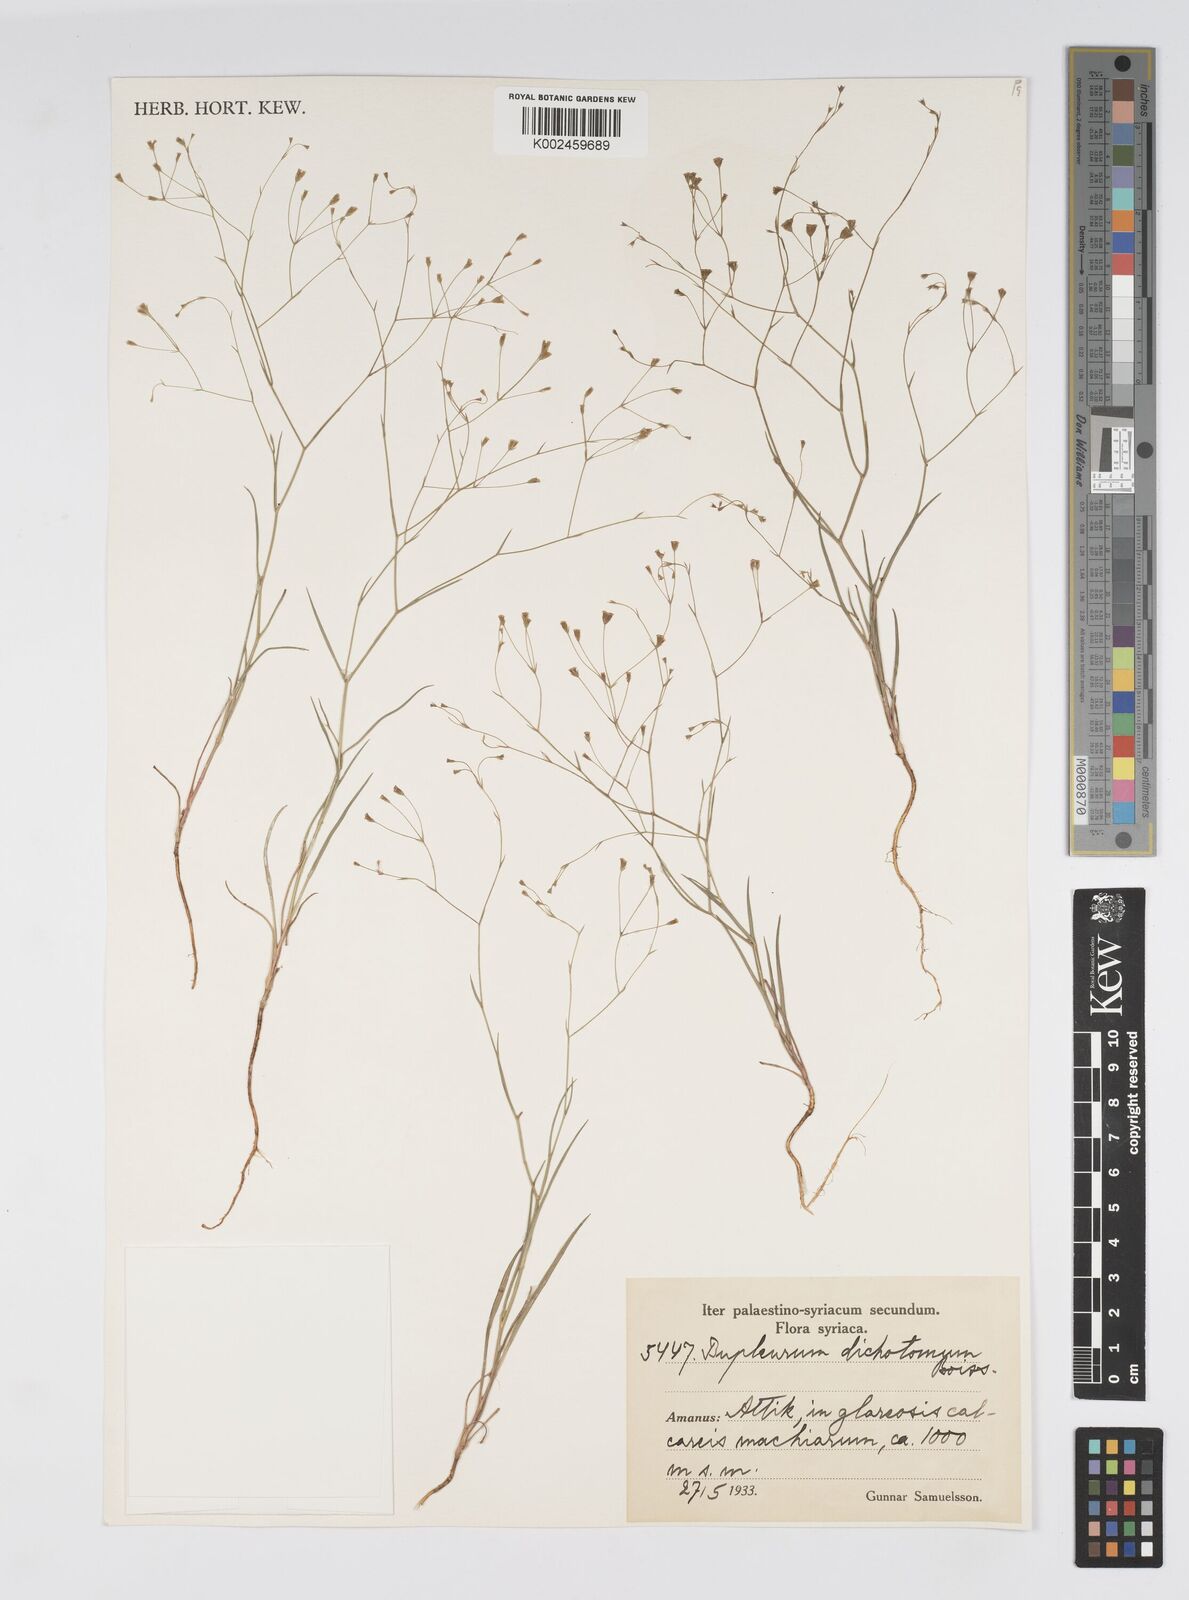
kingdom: Plantae
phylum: Tracheophyta
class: Magnoliopsida
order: Apiales
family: Apiaceae
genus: Bupleurum
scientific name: Bupleurum trichopodum
